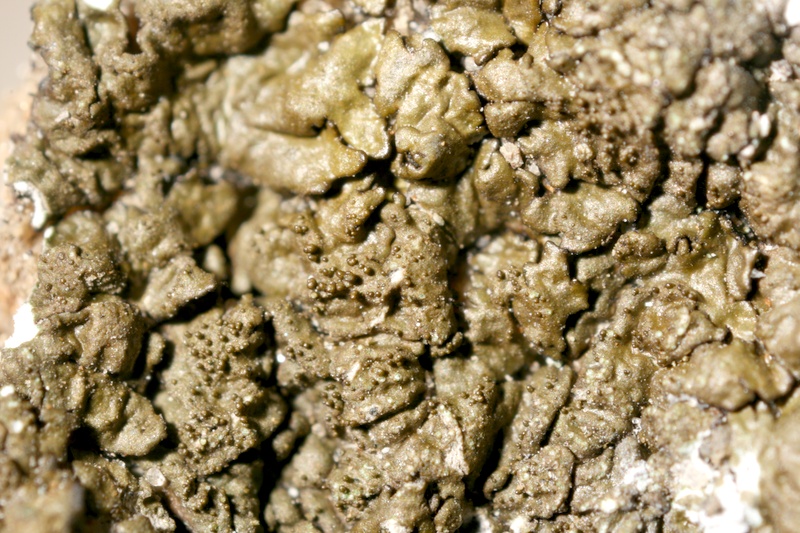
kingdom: Fungi
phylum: Ascomycota
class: Lecanoromycetes
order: Lecanorales
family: Parmeliaceae
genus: Neofuscelia
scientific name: Neofuscelia
